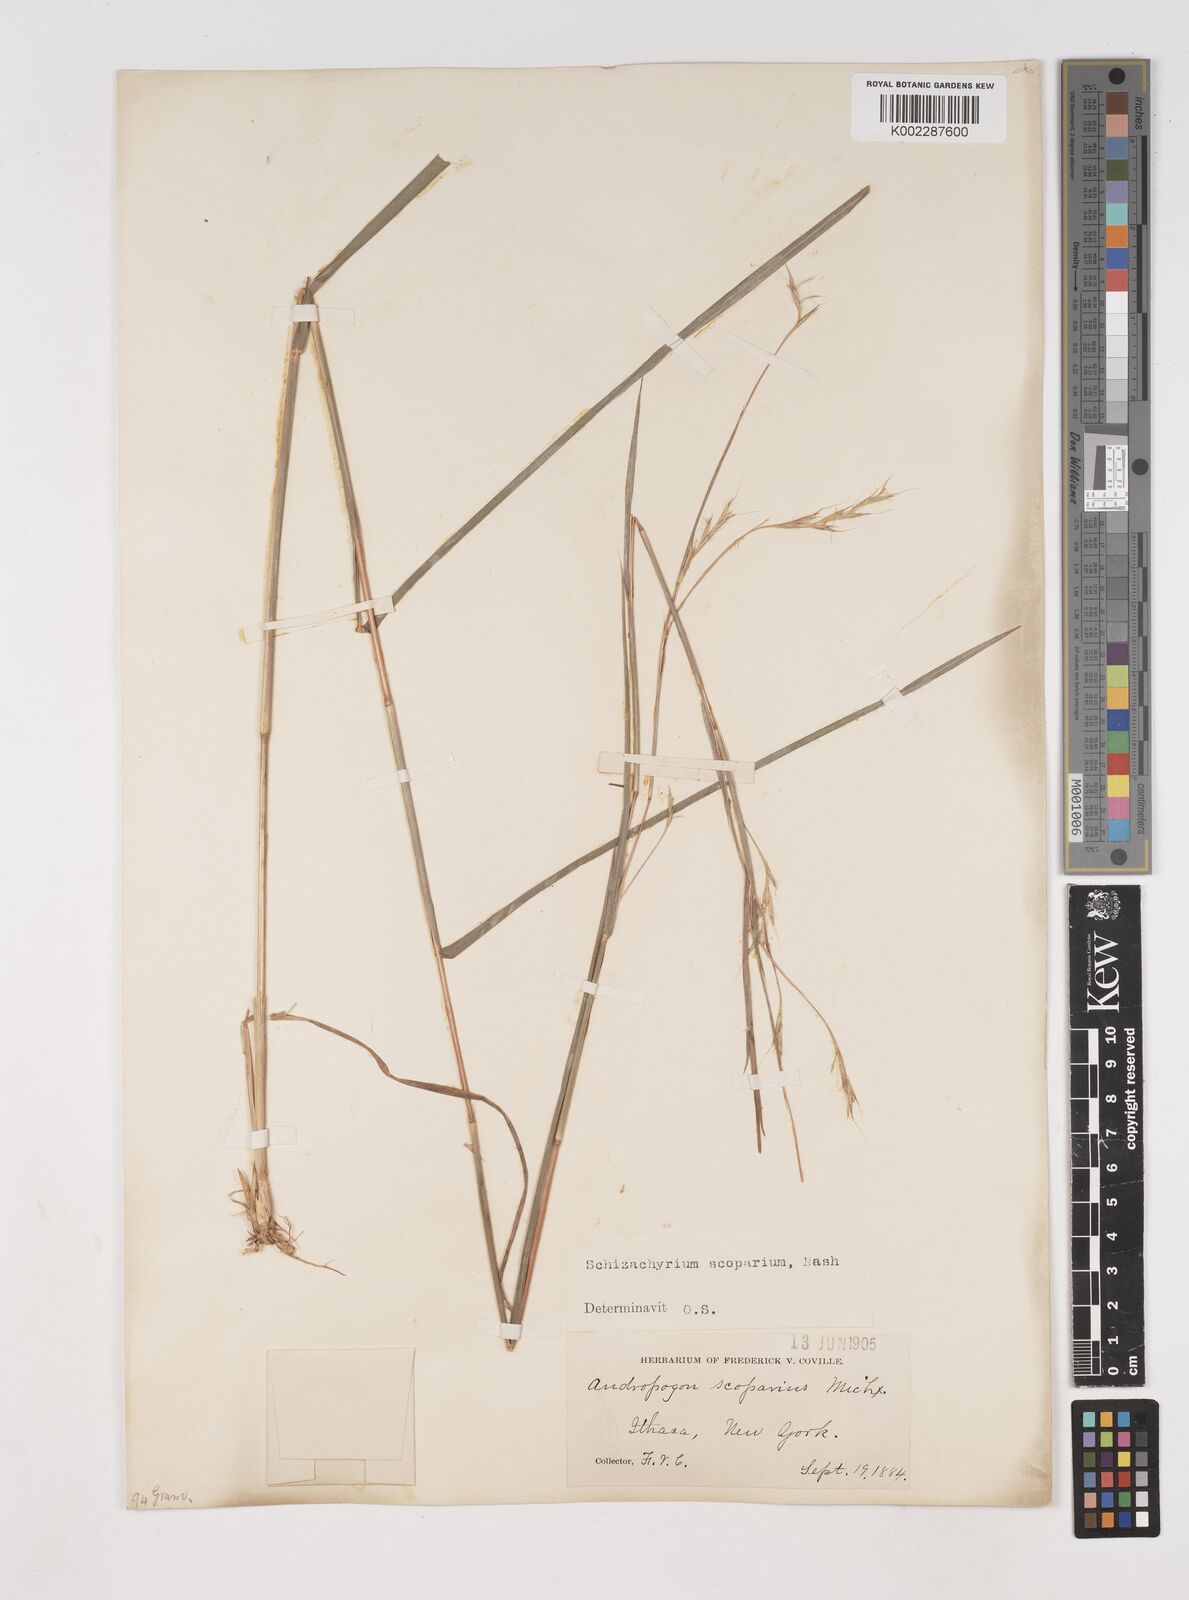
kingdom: Plantae
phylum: Tracheophyta
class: Liliopsida
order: Poales
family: Poaceae
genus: Schizachyrium
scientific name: Schizachyrium scoparium
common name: Little bluestem
